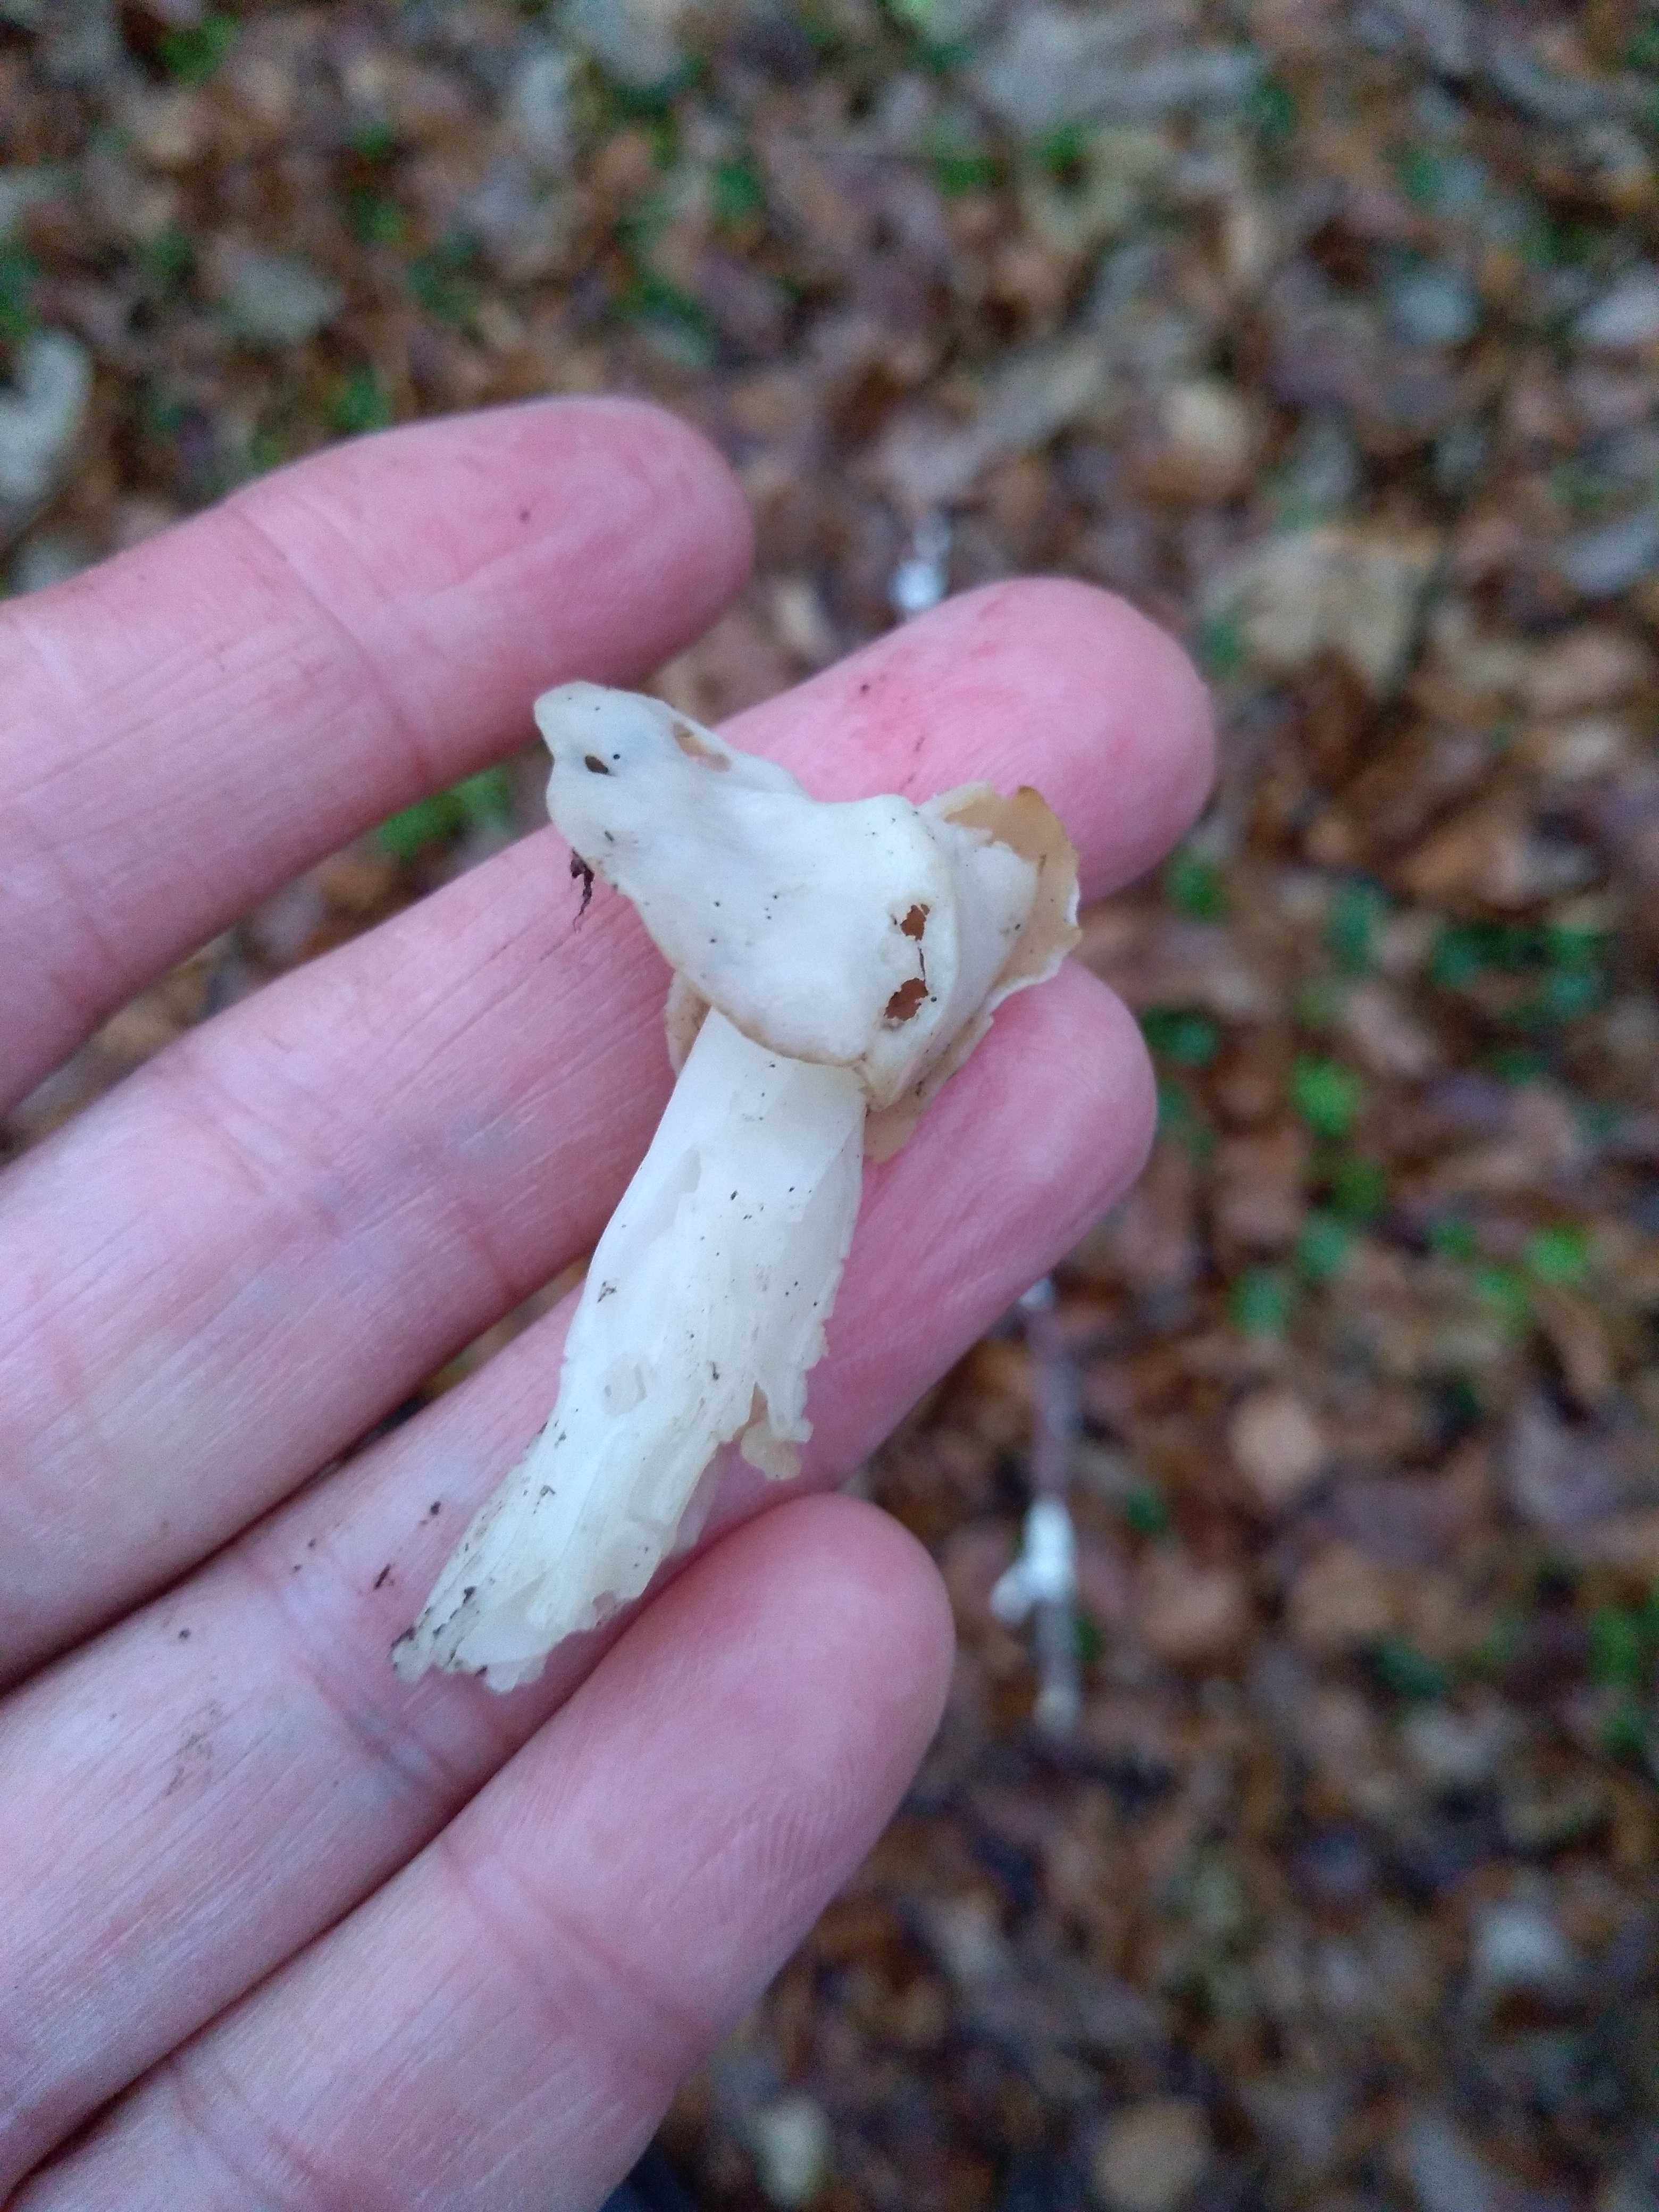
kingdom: Fungi
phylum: Ascomycota
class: Pezizomycetes
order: Pezizales
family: Helvellaceae
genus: Helvella
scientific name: Helvella crispa
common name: kruset foldhat
